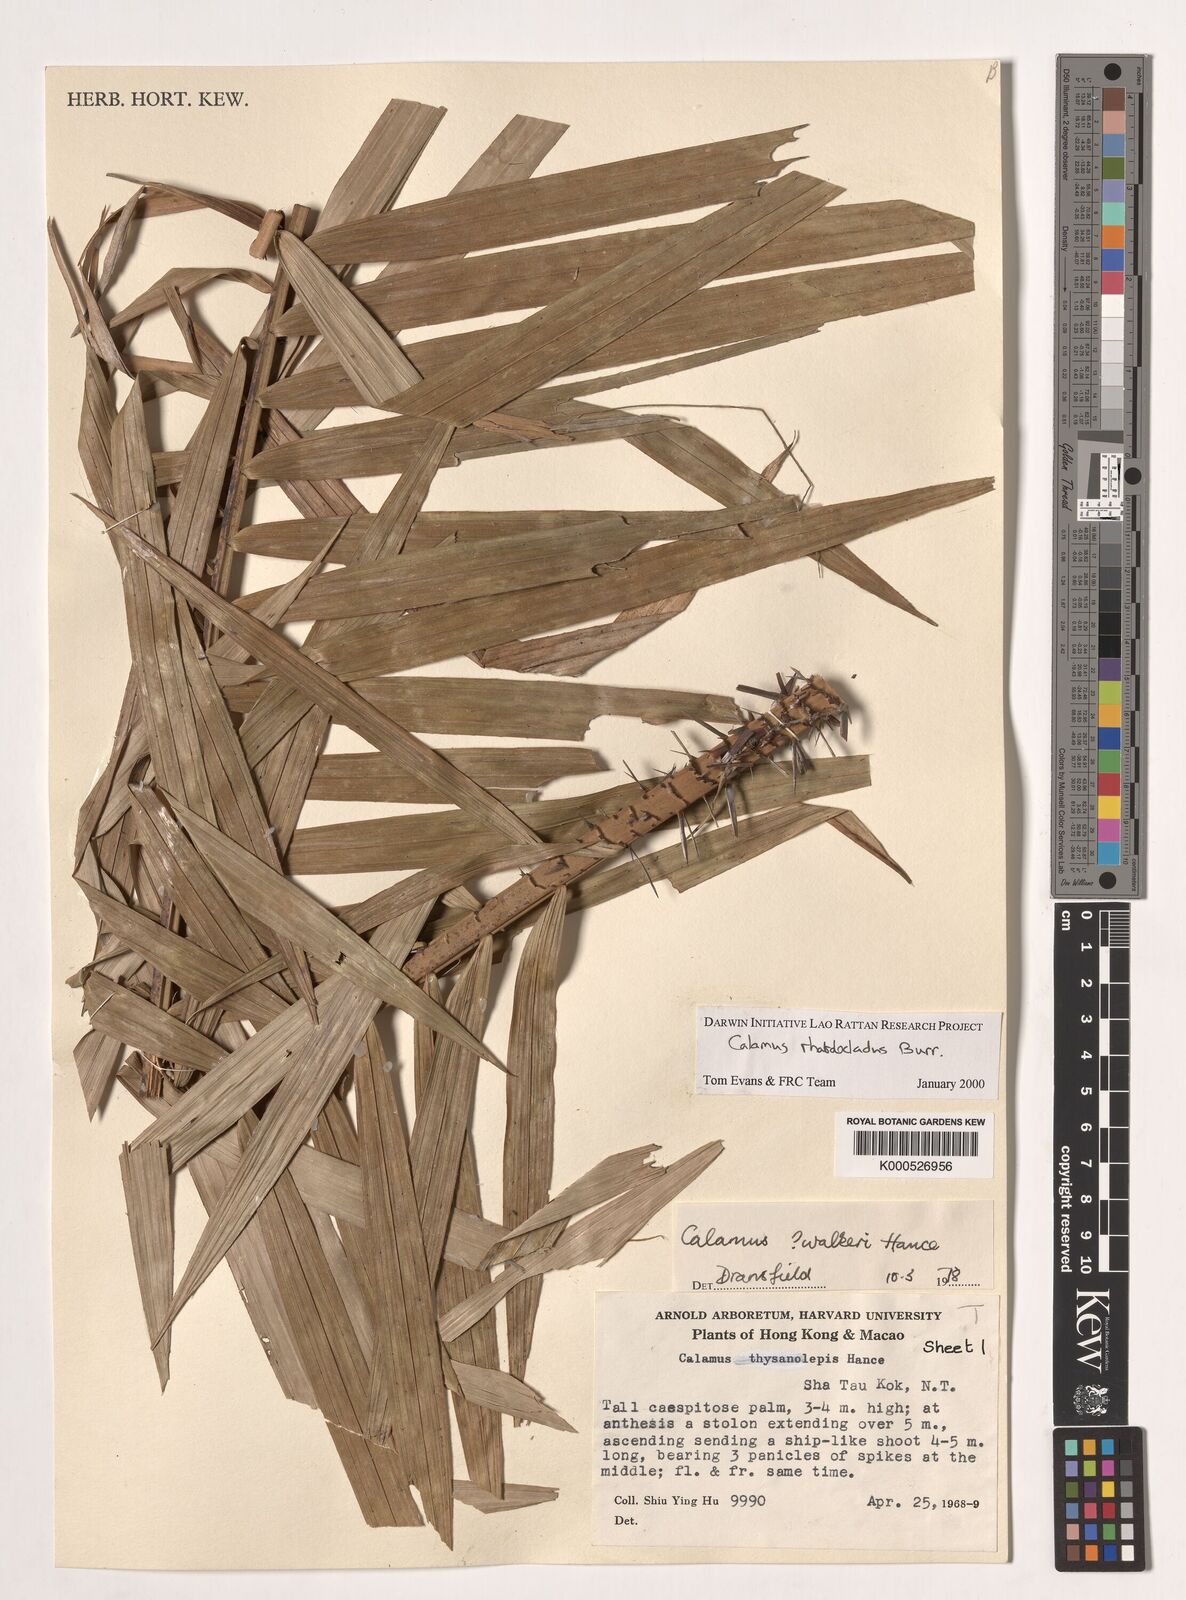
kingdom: Plantae
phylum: Tracheophyta
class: Liliopsida
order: Arecales
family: Arecaceae
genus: Calamus
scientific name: Calamus rhabdocladus
